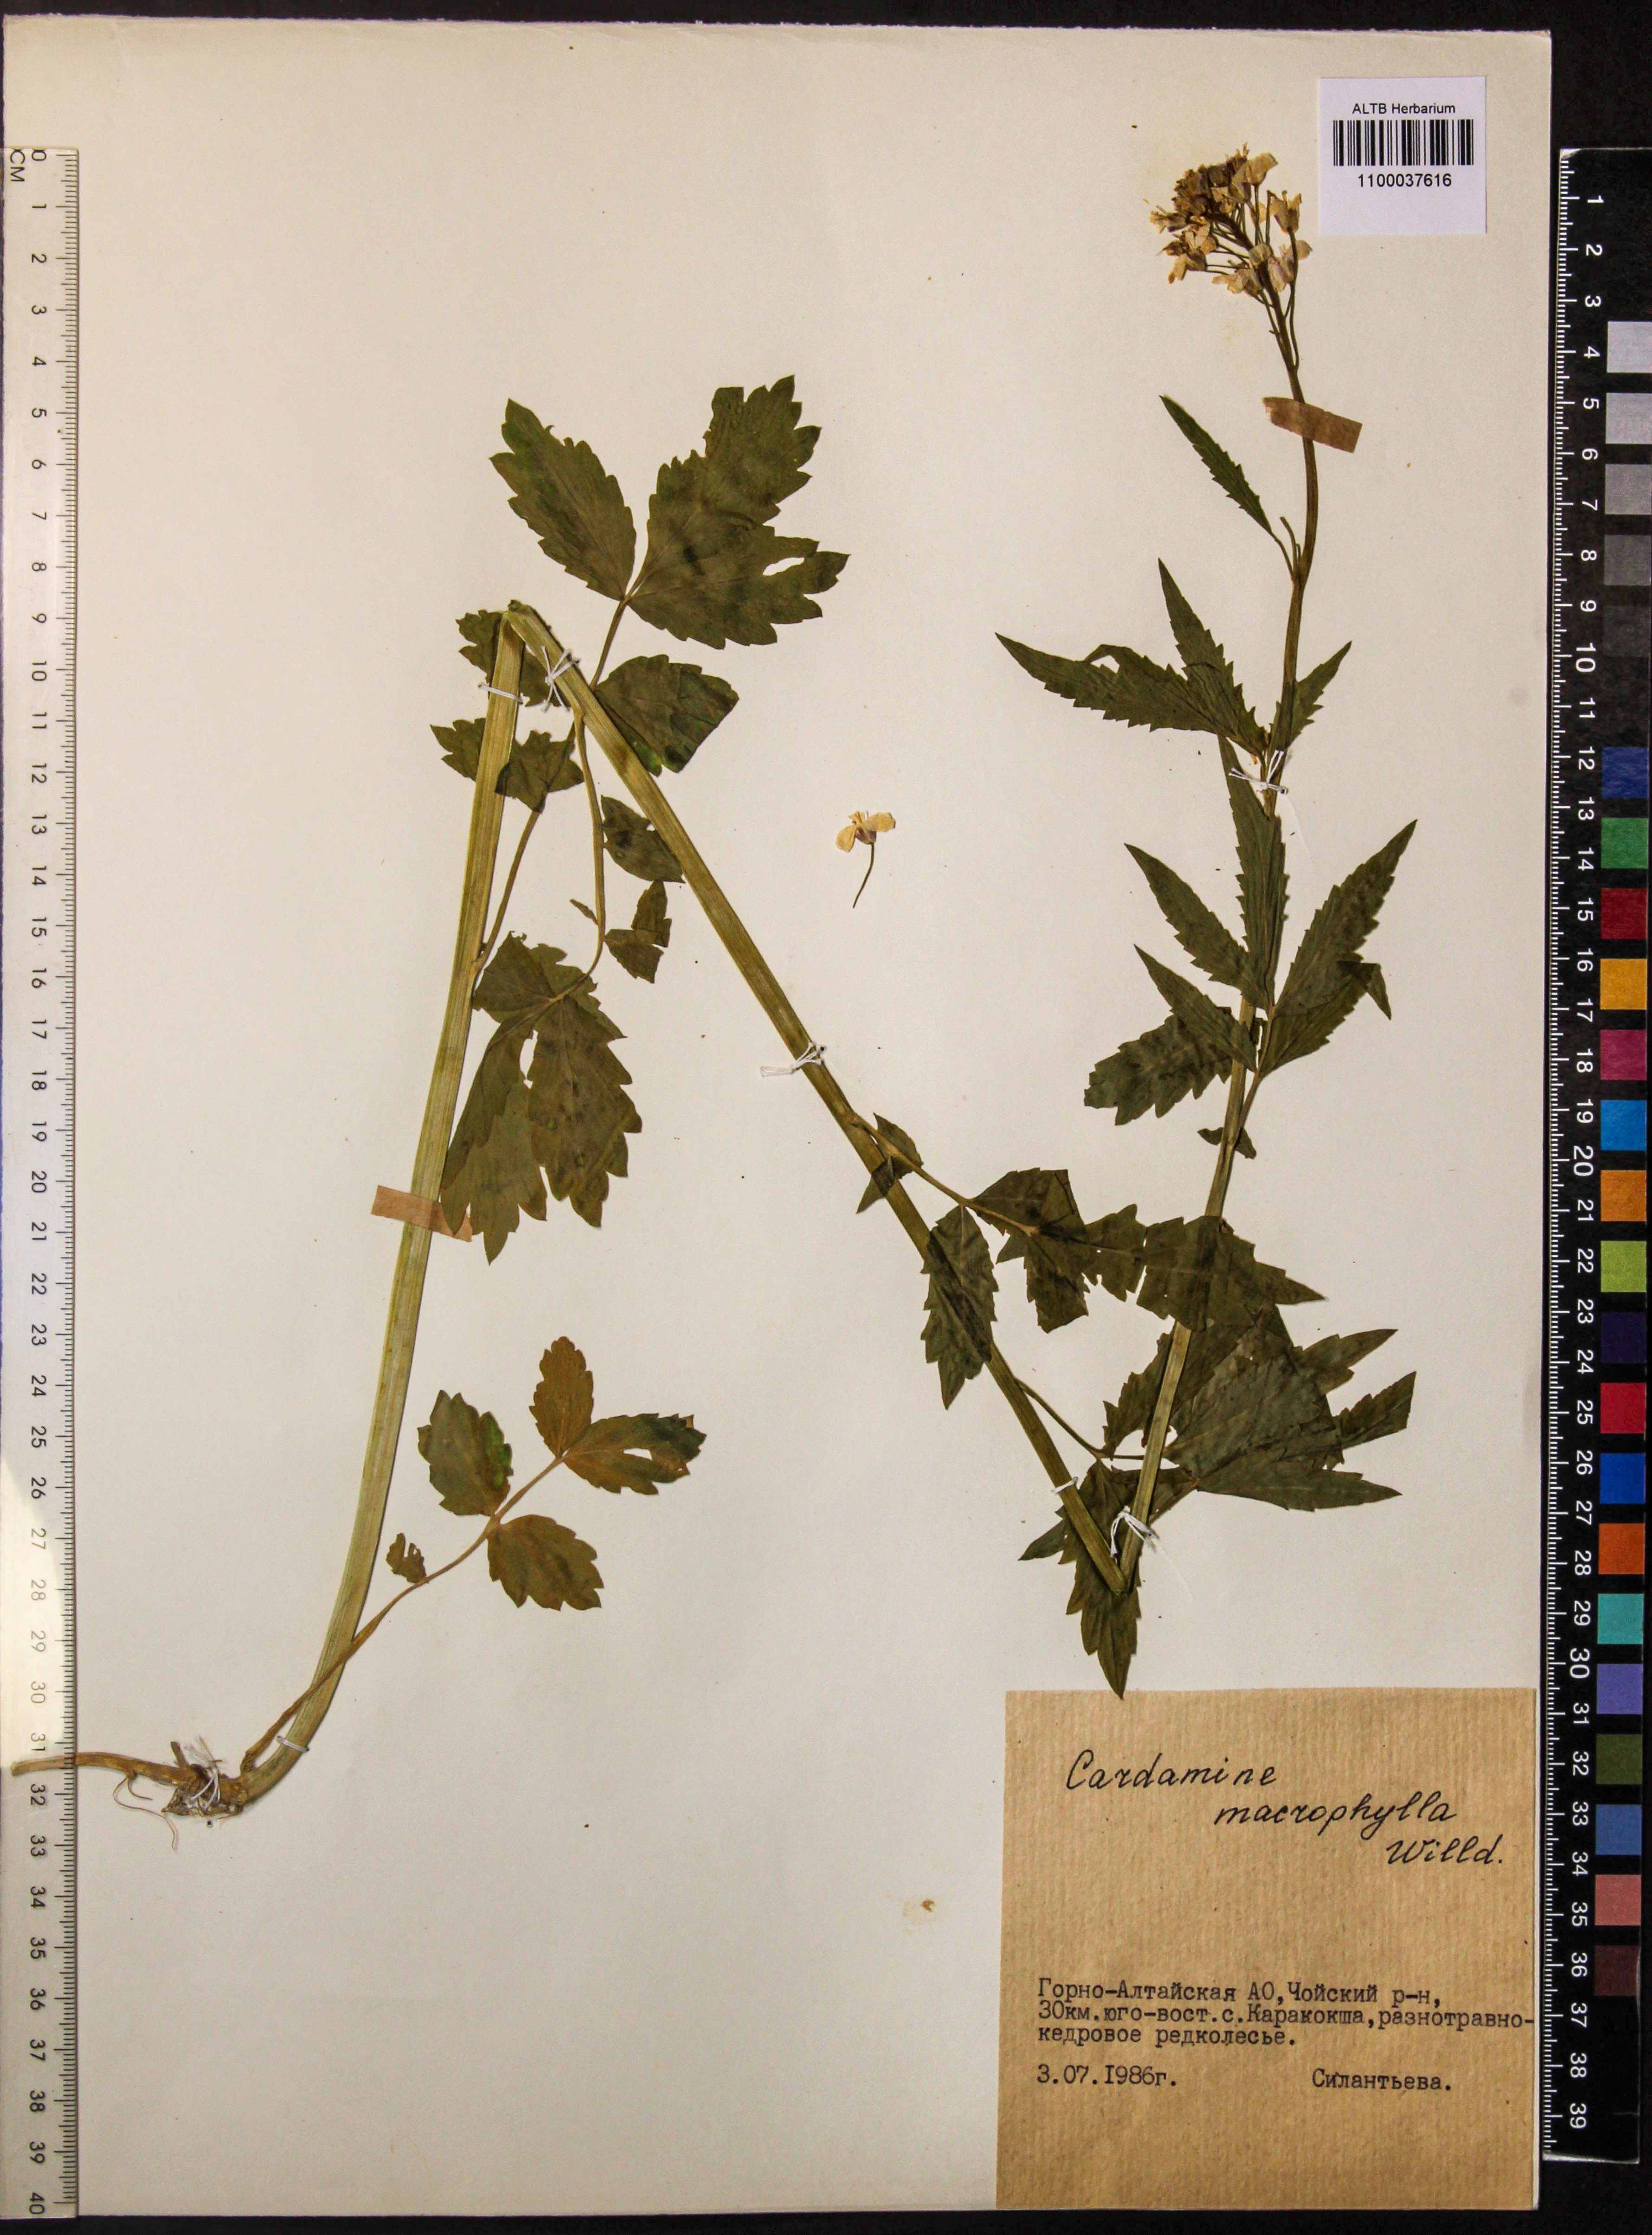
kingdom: Plantae
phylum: Tracheophyta
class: Magnoliopsida
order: Brassicales
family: Brassicaceae
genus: Cardamine
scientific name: Cardamine macrophylla
